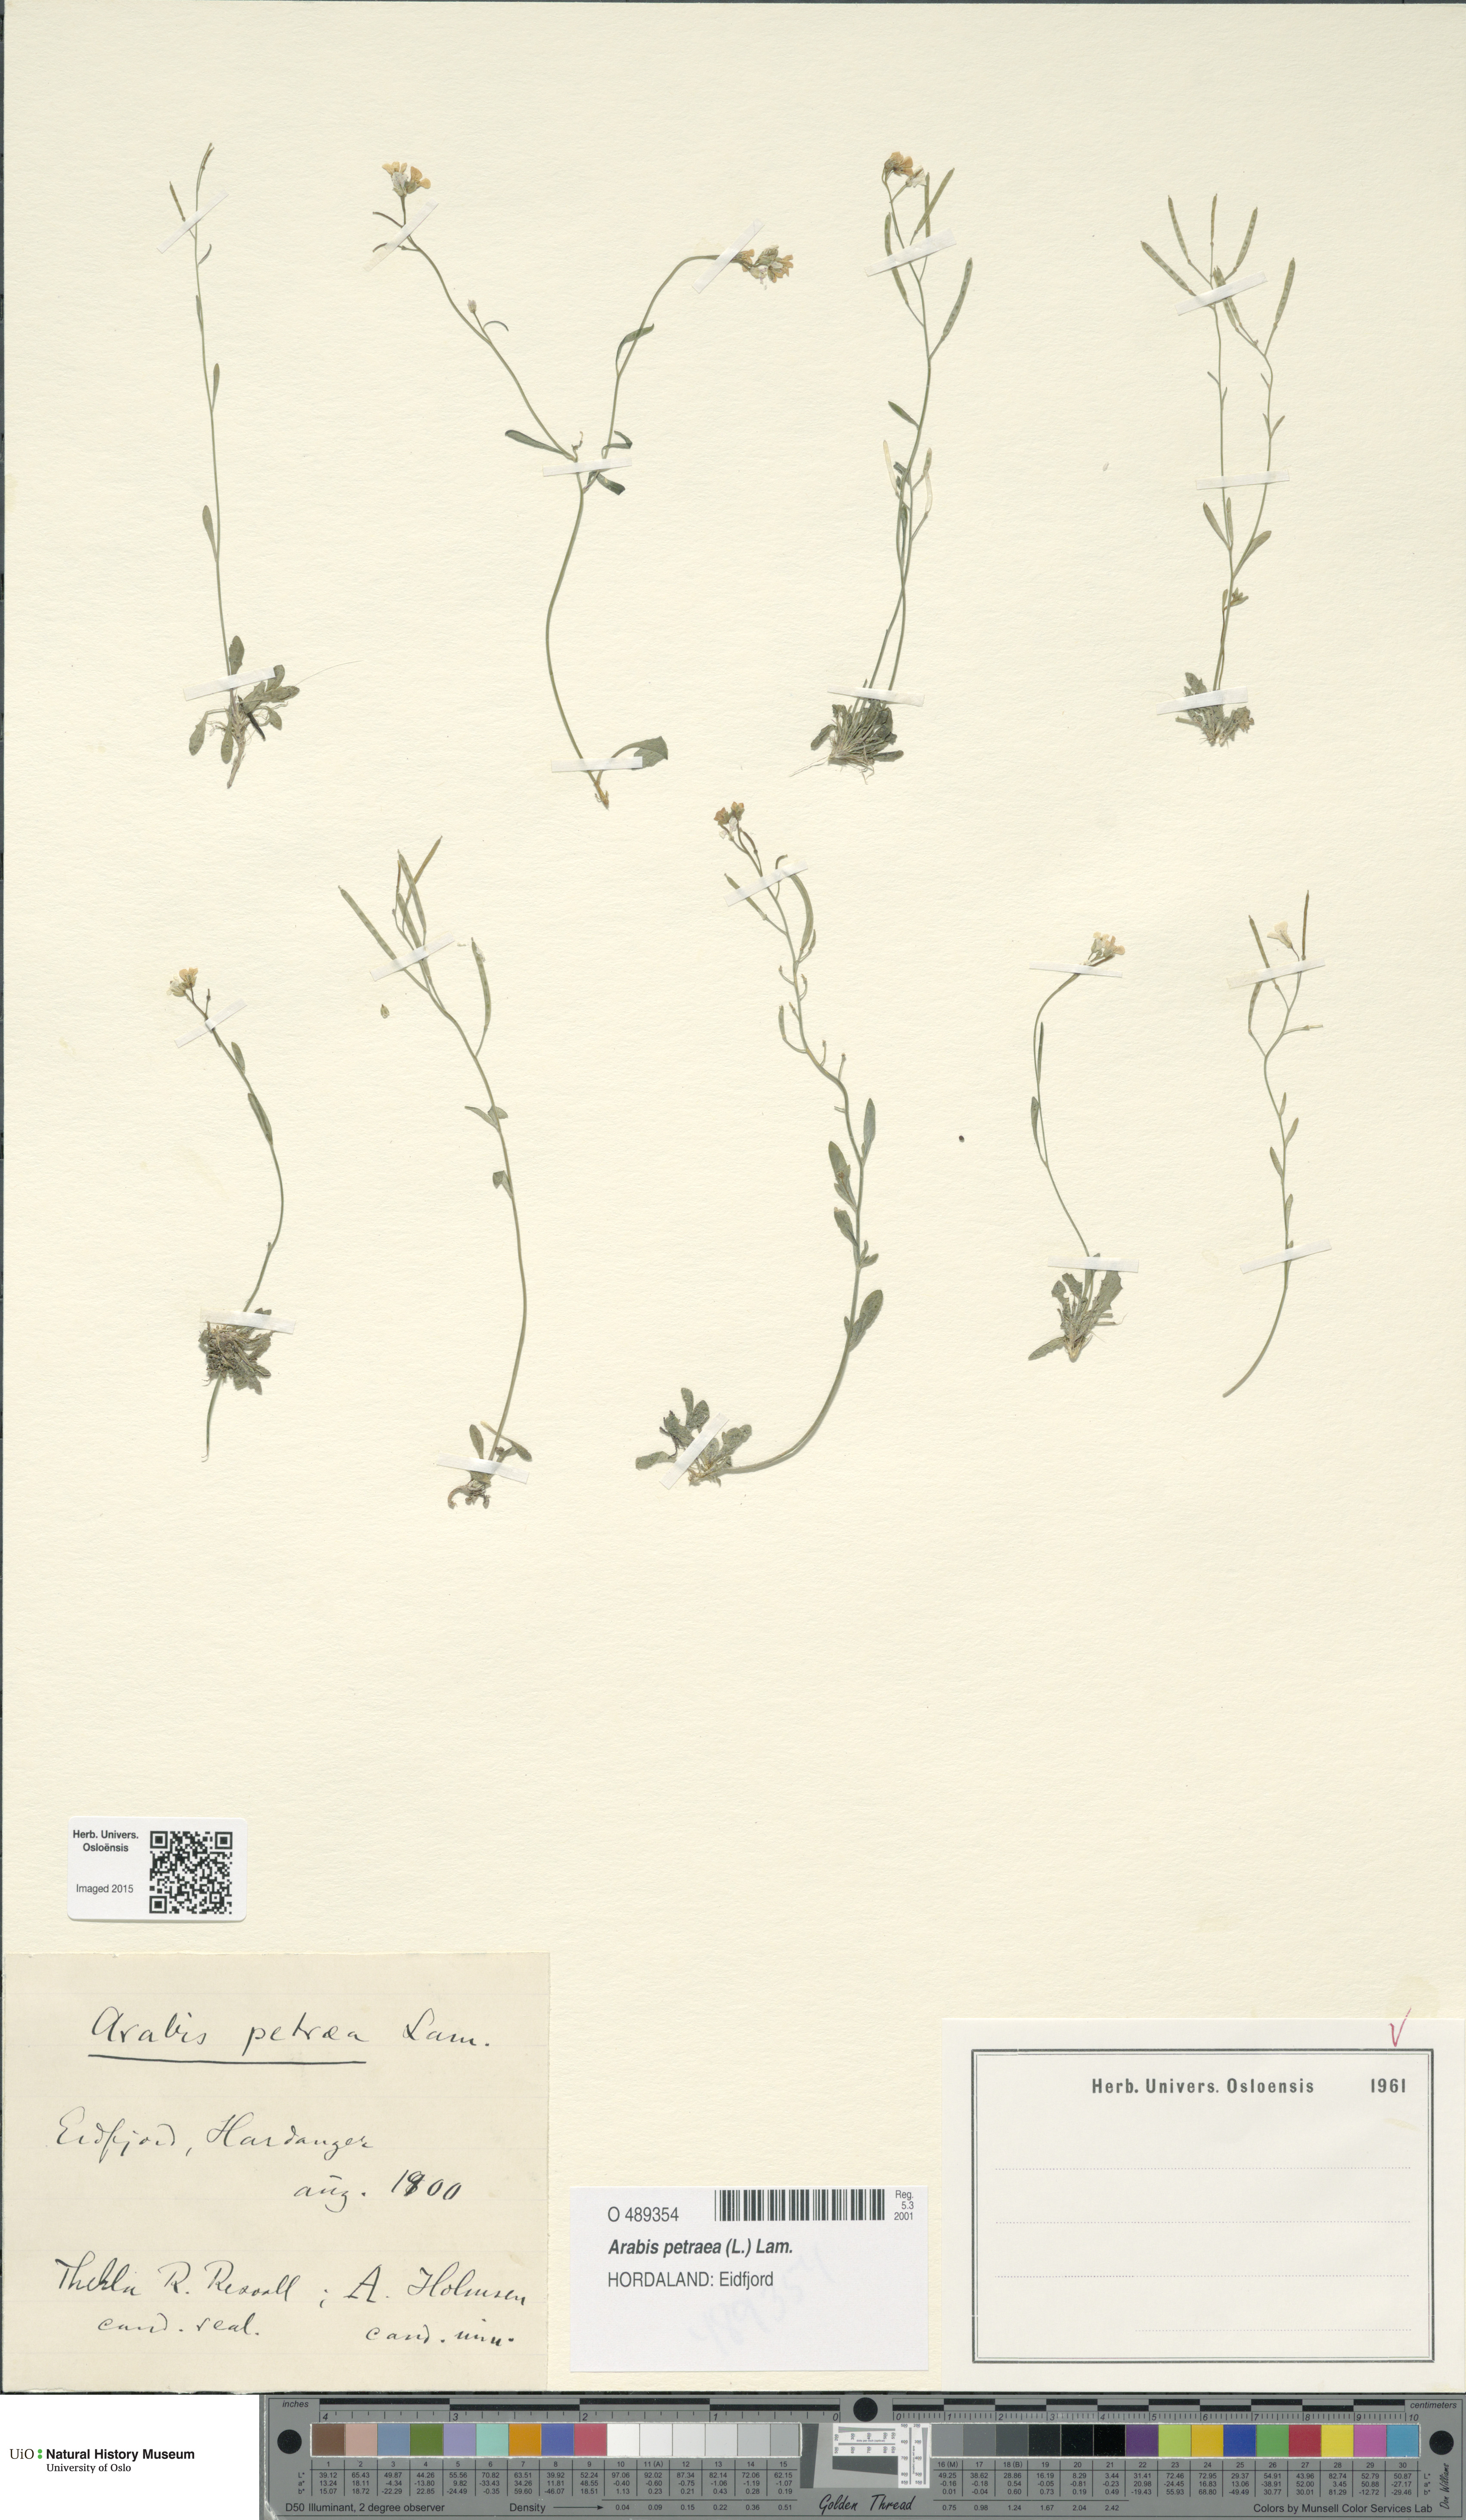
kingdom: Plantae
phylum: Tracheophyta
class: Magnoliopsida
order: Brassicales
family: Brassicaceae
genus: Arabidopsis
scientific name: Arabidopsis petraea
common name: Northern rock-cress
